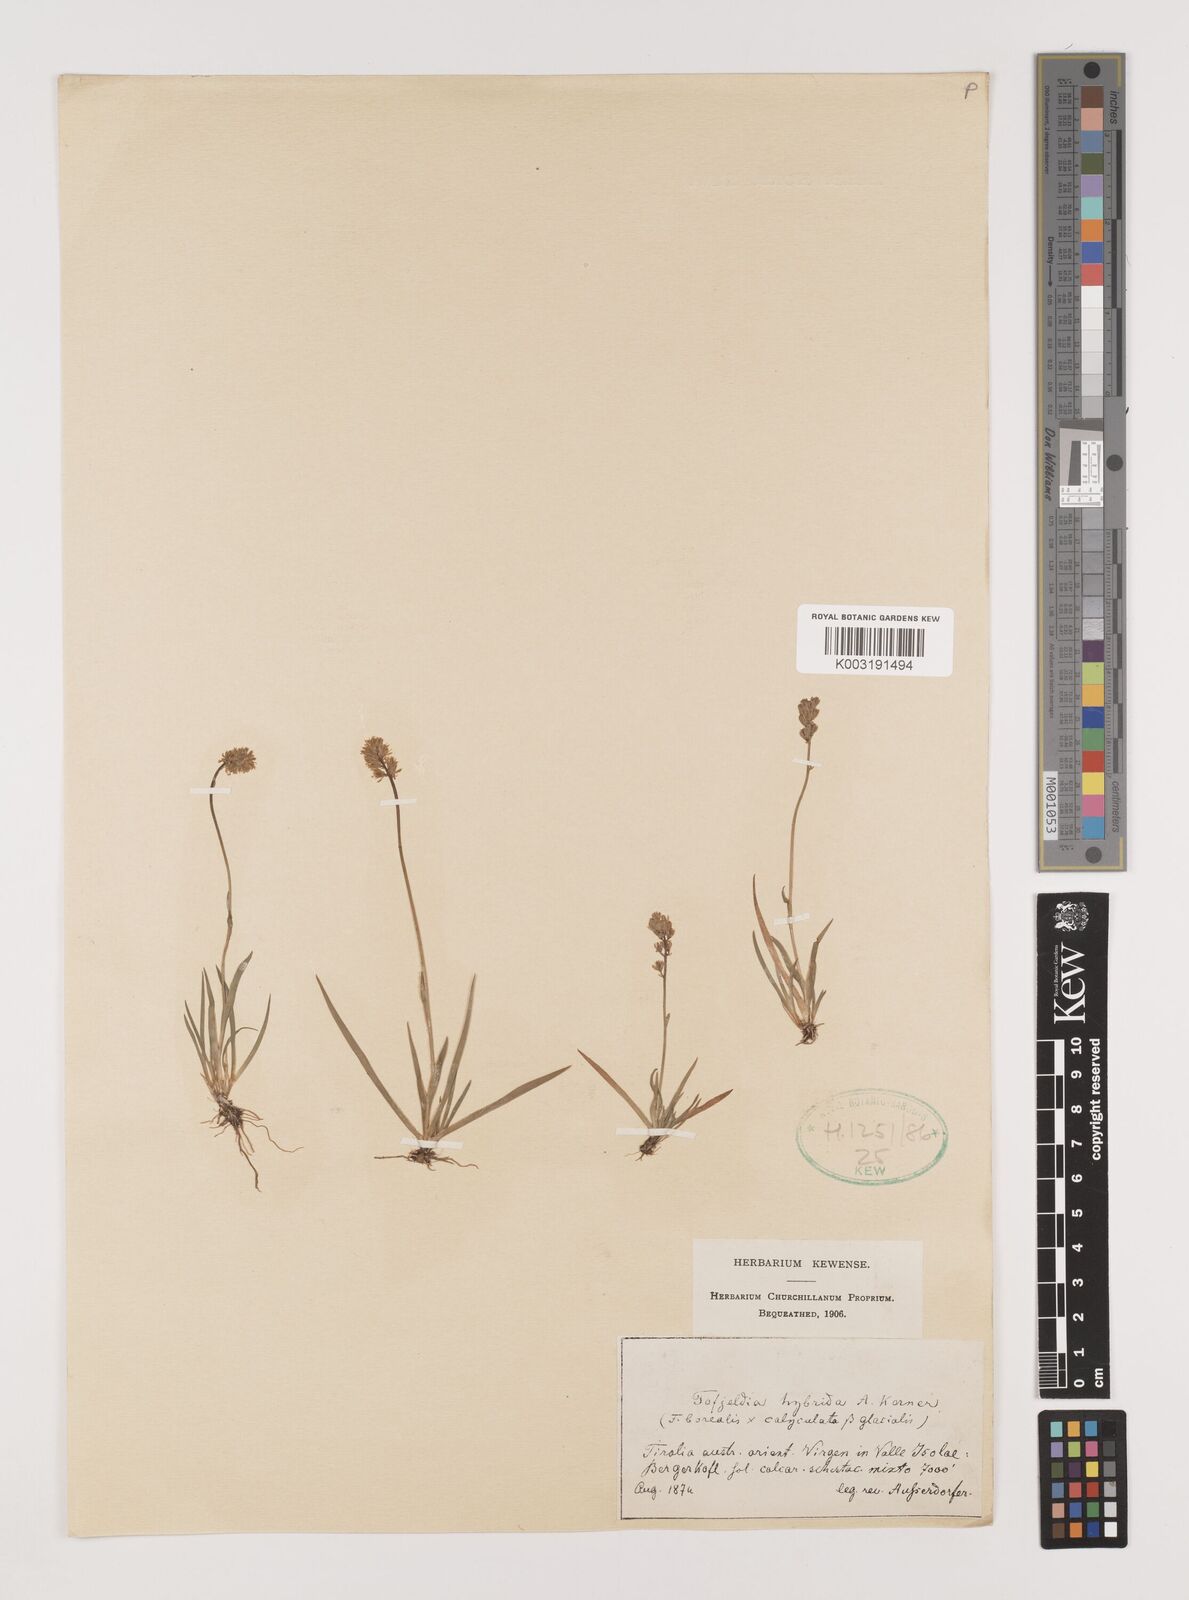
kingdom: Plantae
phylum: Tracheophyta
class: Liliopsida
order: Alismatales
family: Tofieldiaceae
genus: Tofieldia
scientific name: Tofieldia
